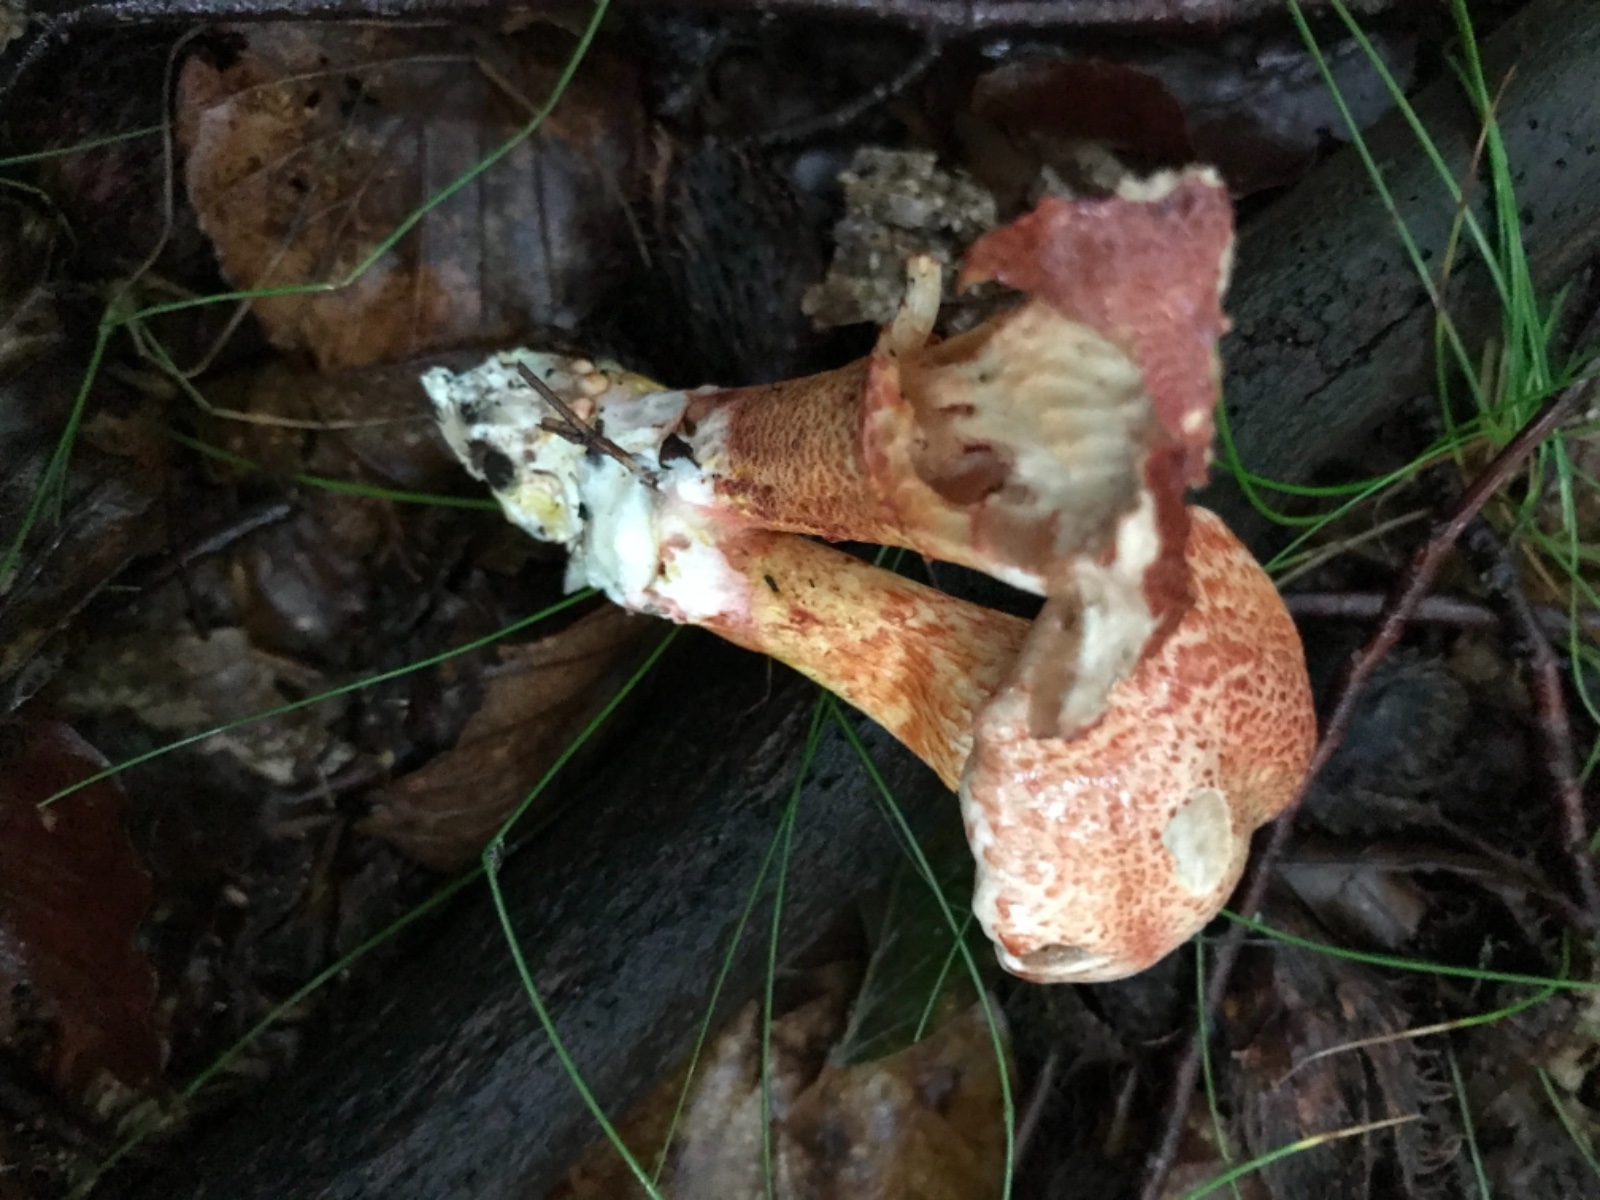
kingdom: Fungi
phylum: Basidiomycota
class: Agaricomycetes
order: Agaricales
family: Cortinariaceae
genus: Cortinarius
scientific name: Cortinarius bolaris
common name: cinnoberskællet slørhat
